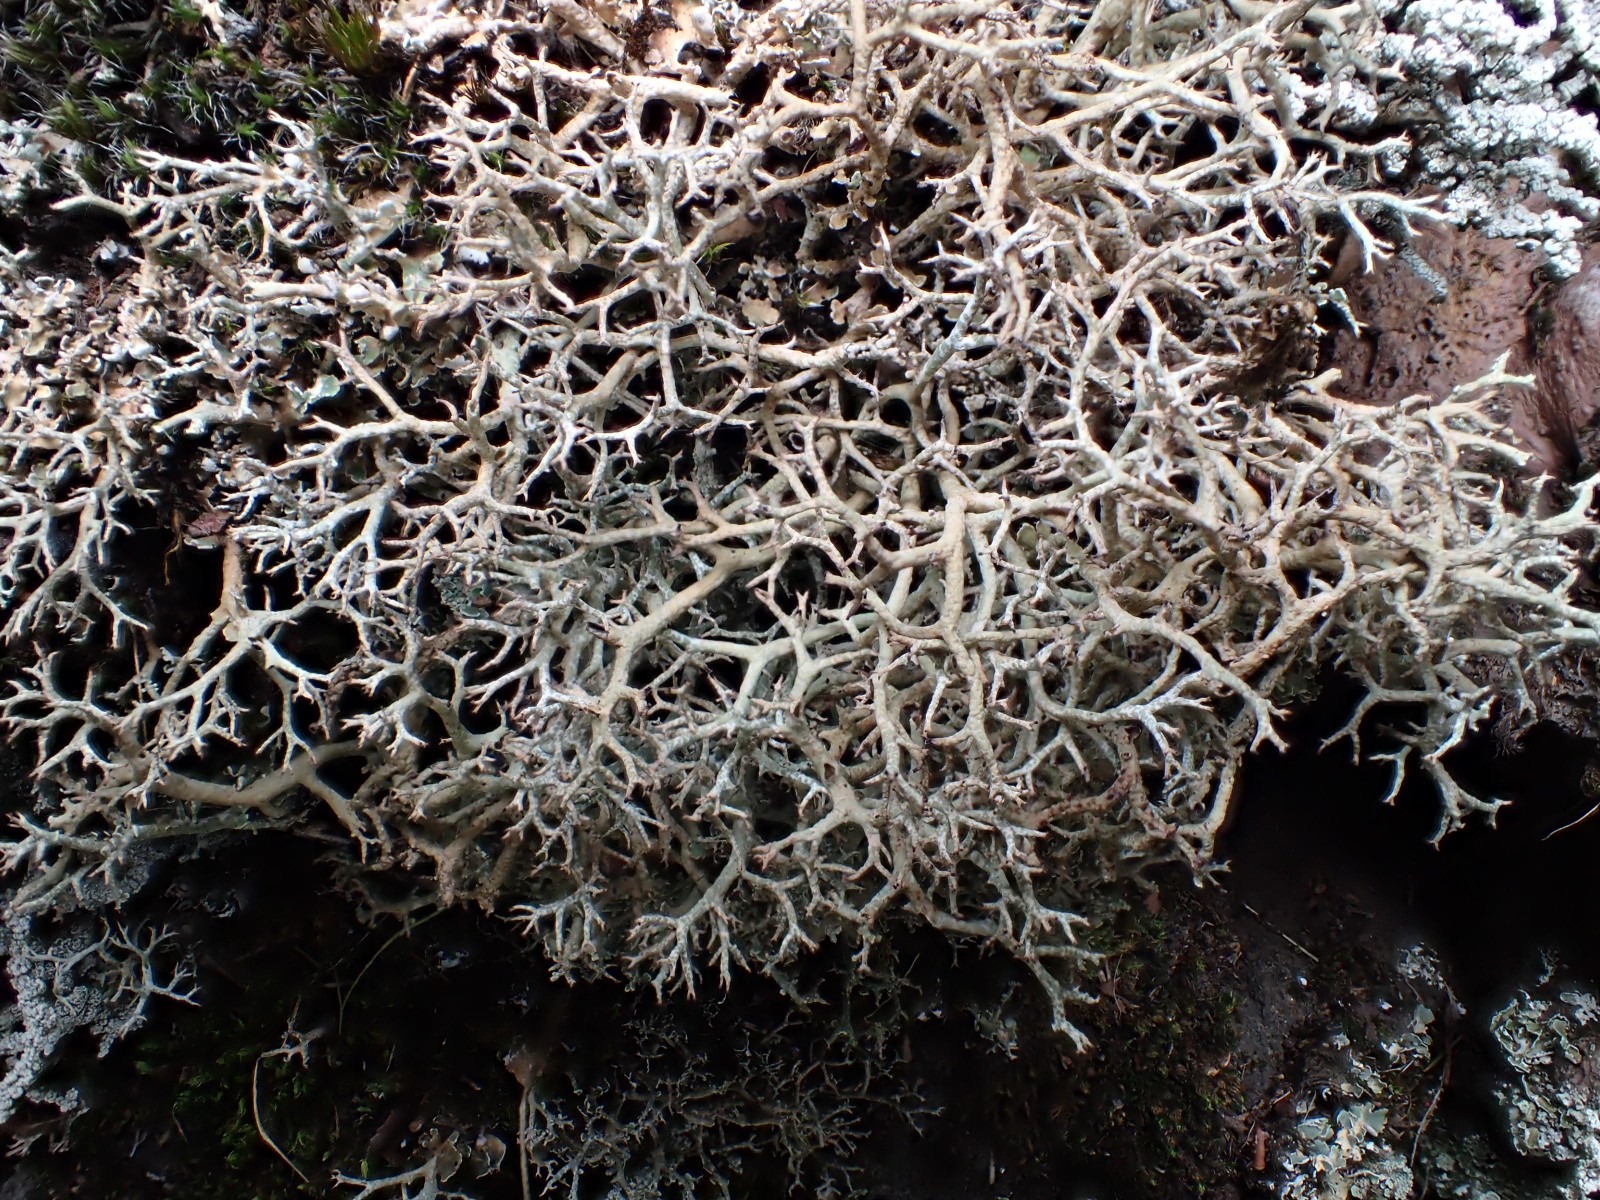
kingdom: Fungi
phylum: Ascomycota
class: Lecanoromycetes
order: Lecanorales
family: Cladoniaceae
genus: Cladonia
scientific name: Cladonia rangiformis
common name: spættet bægerlav
